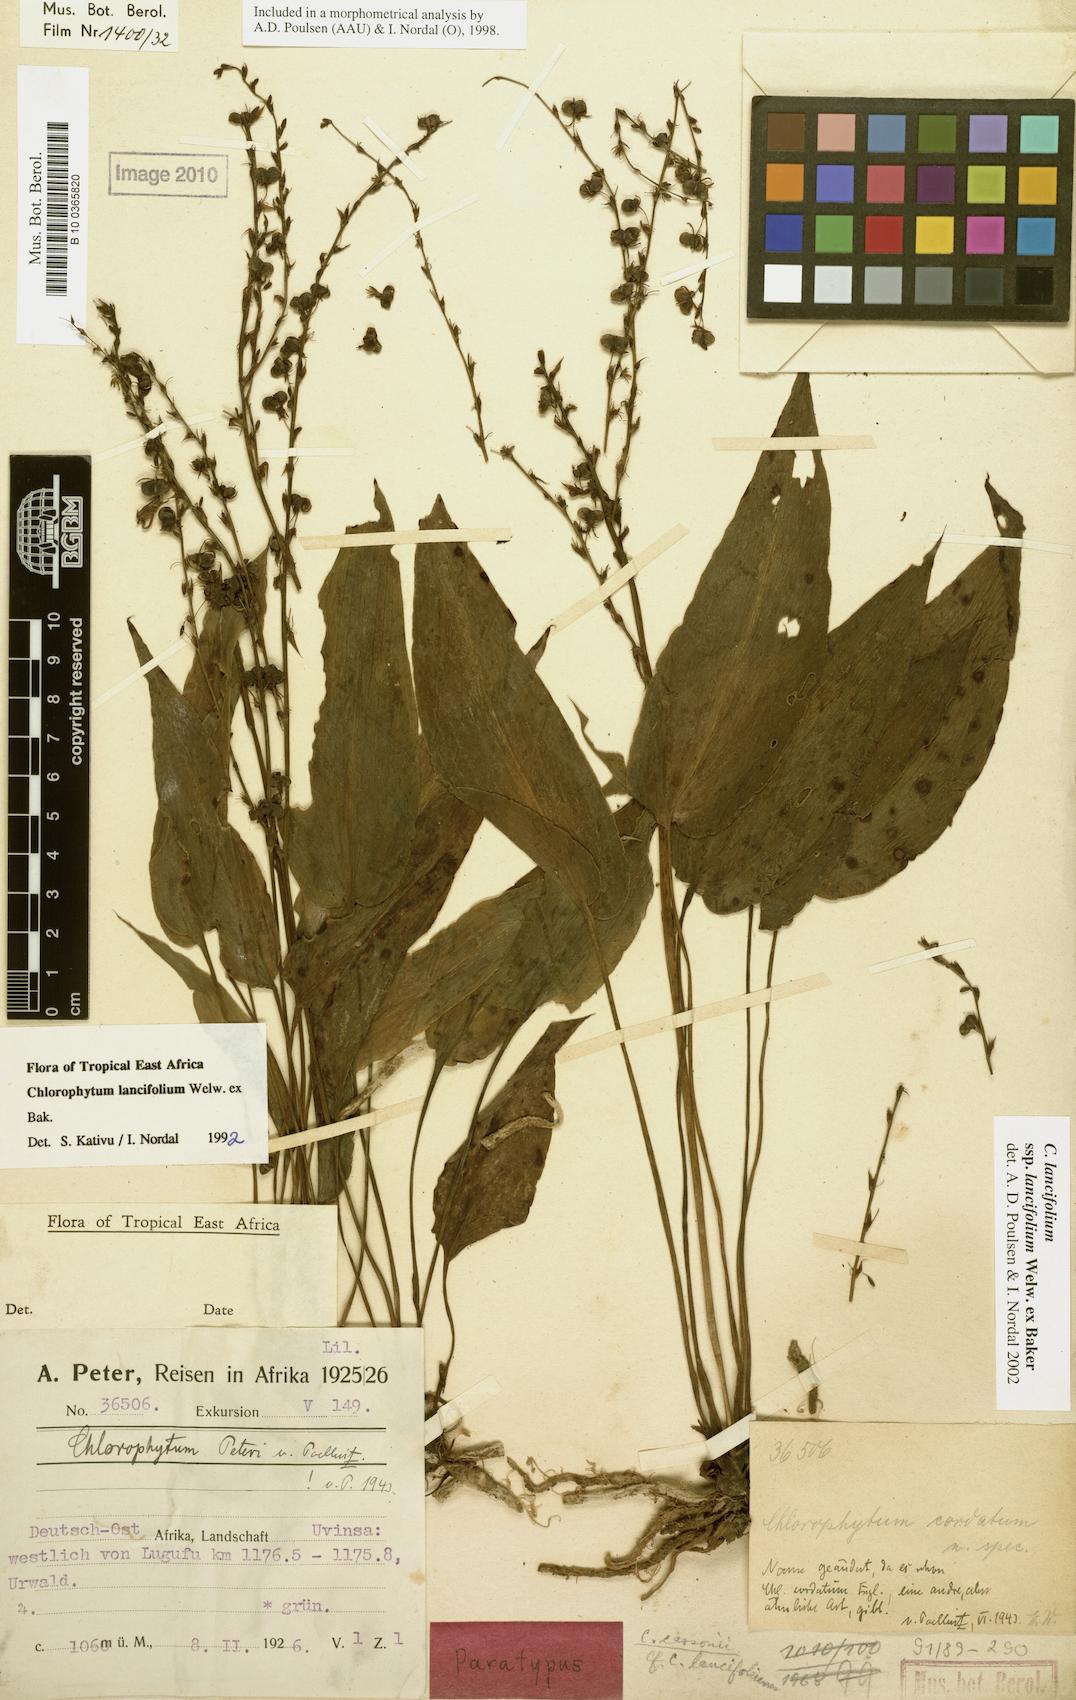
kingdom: Plantae
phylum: Tracheophyta
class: Liliopsida
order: Asparagales
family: Asparagaceae
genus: Chlorophytum
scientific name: Chlorophytum lancifolium
